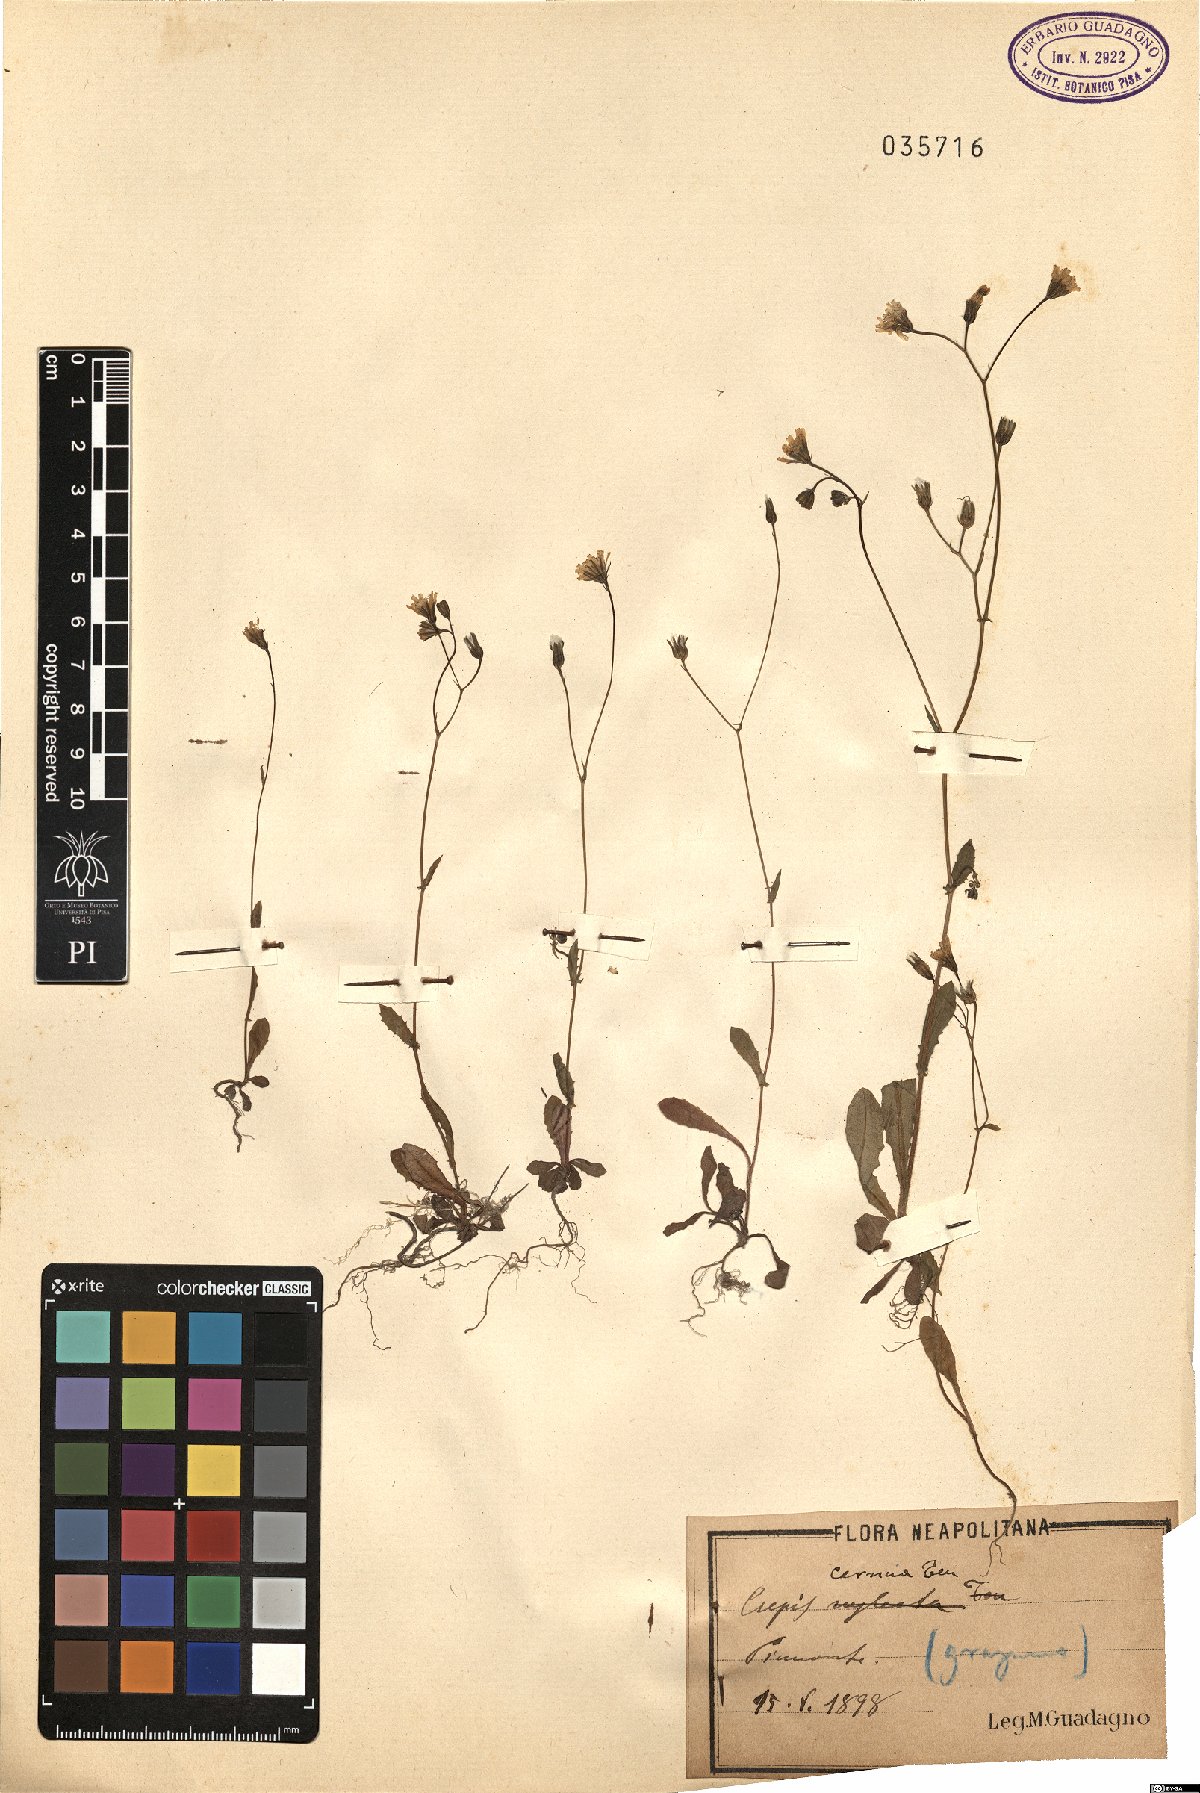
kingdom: Plantae
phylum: Tracheophyta
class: Magnoliopsida
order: Asterales
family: Asteraceae
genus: Crepis
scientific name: Crepis neglecta
